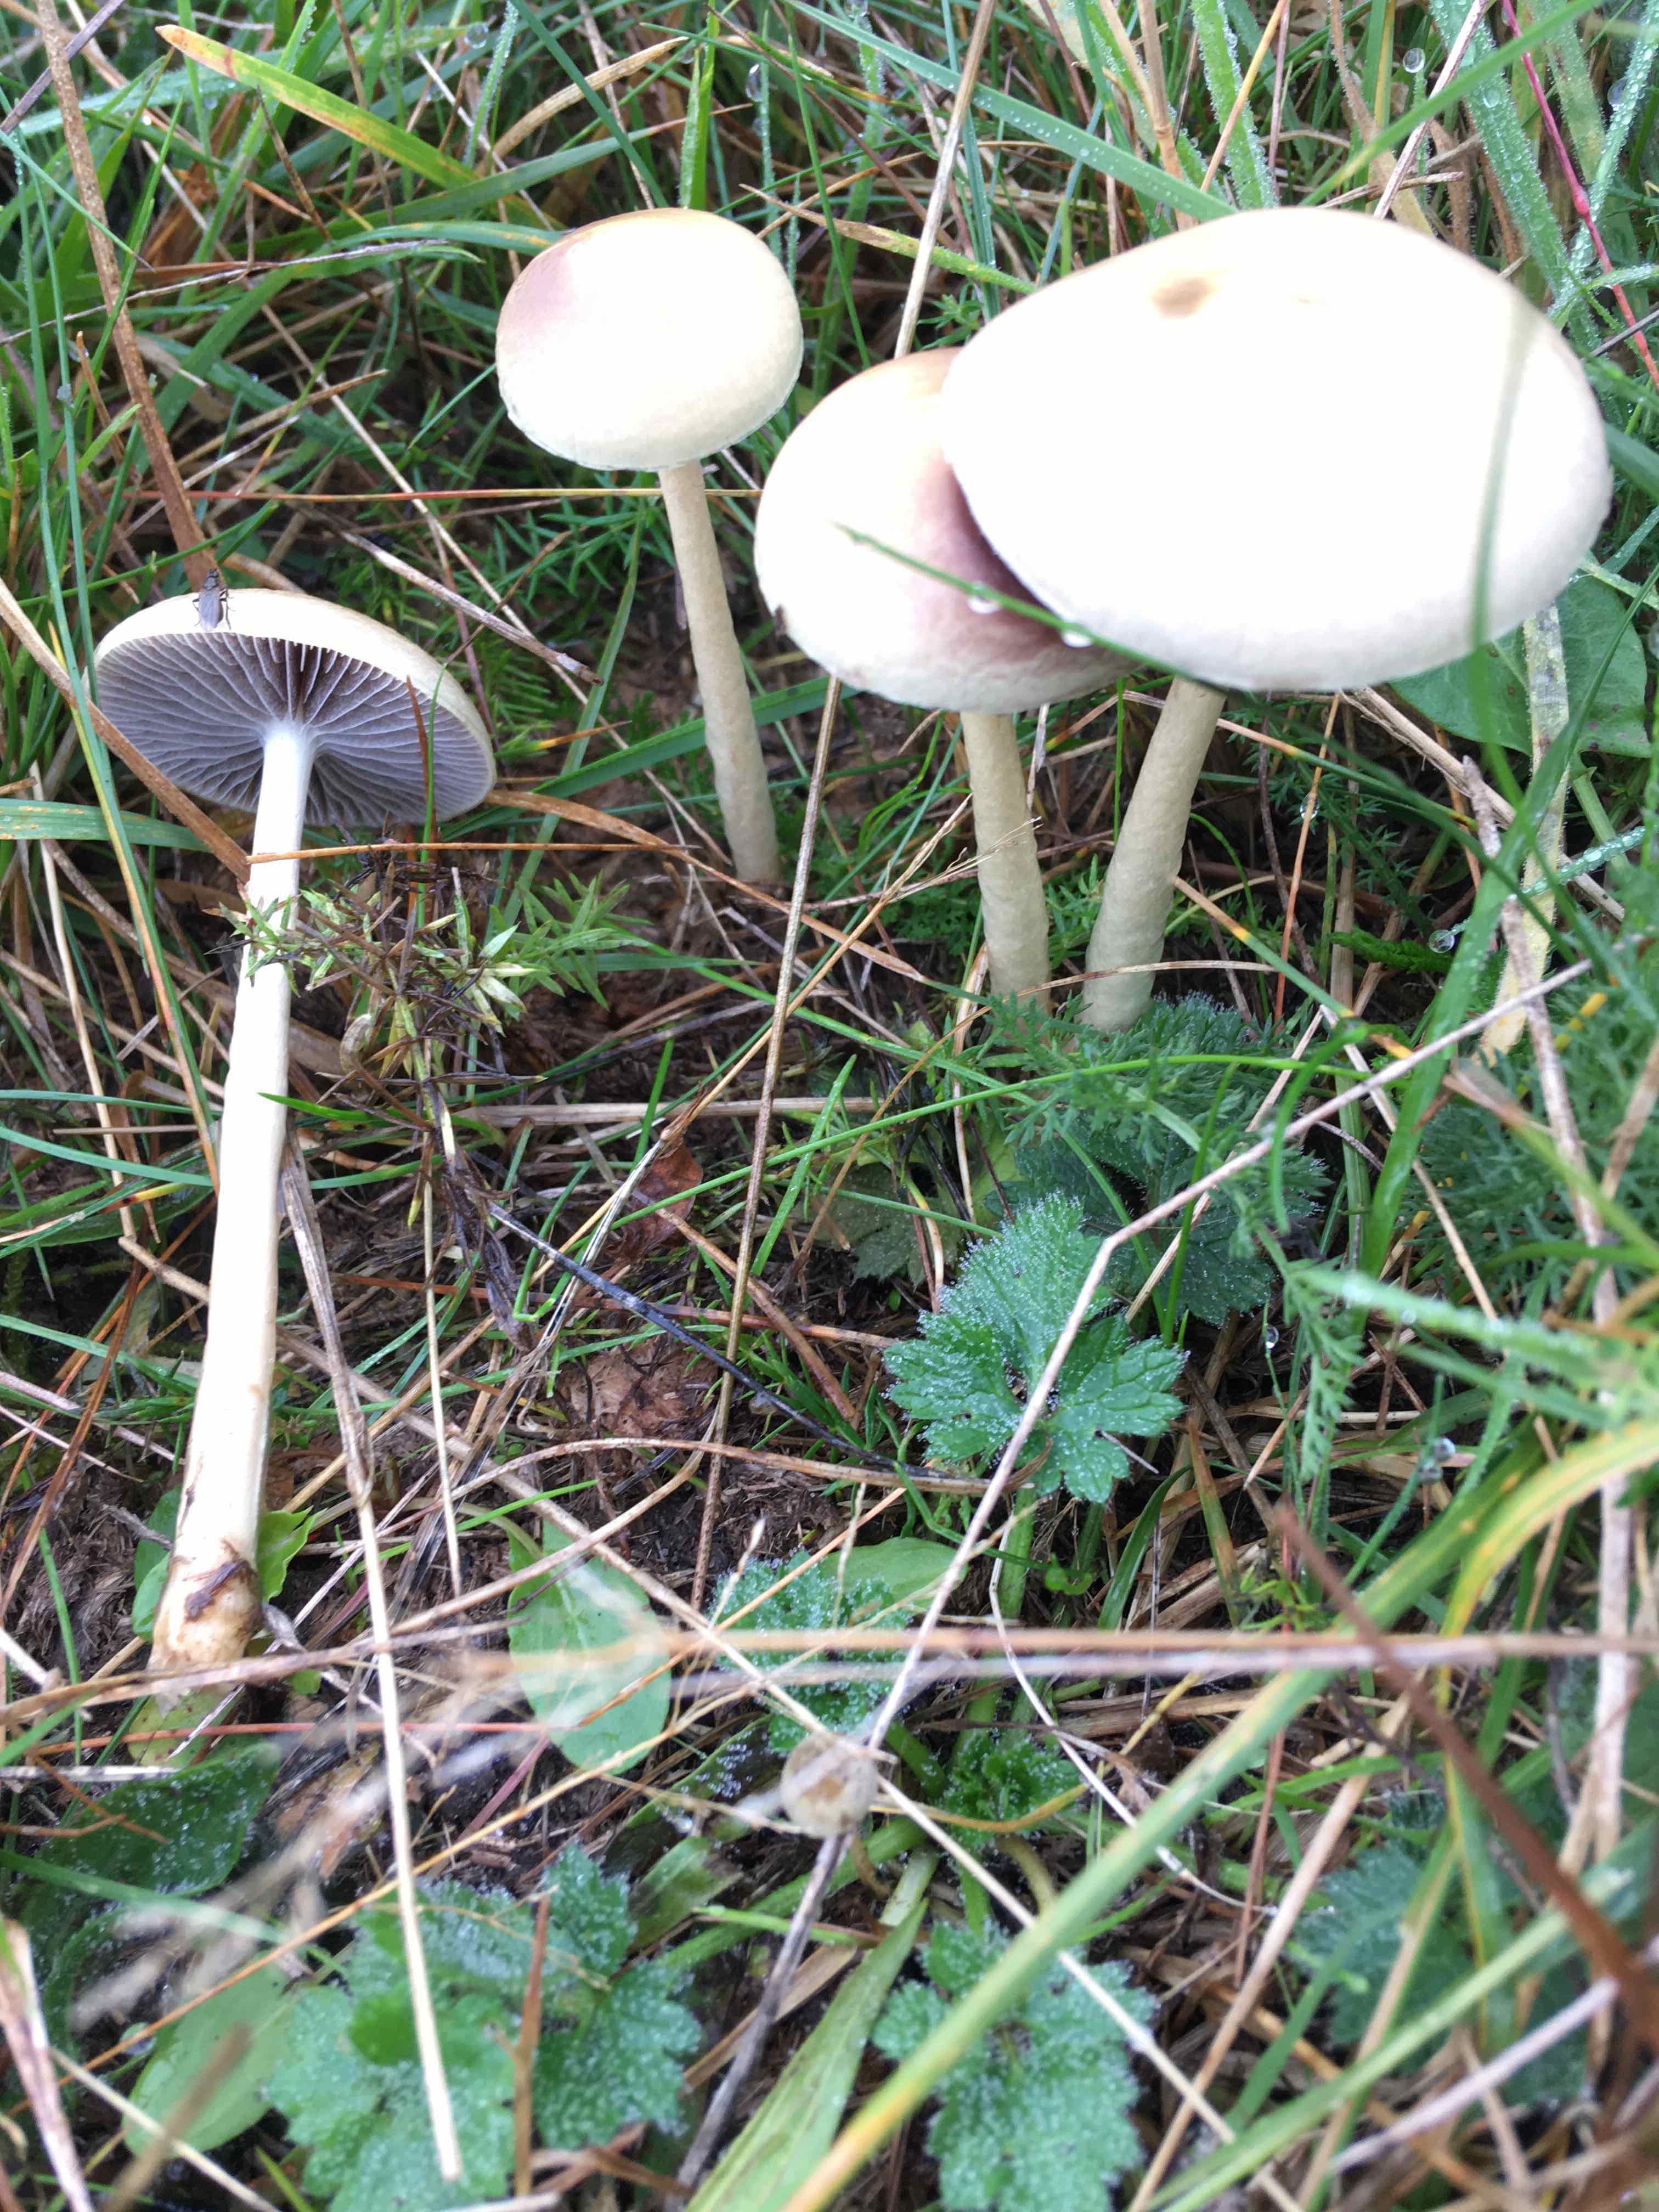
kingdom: Fungi
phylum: Basidiomycota
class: Agaricomycetes
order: Agaricales
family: Strophariaceae
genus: Protostropharia
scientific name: Protostropharia semiglobata
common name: halvkugleformet bredblad
